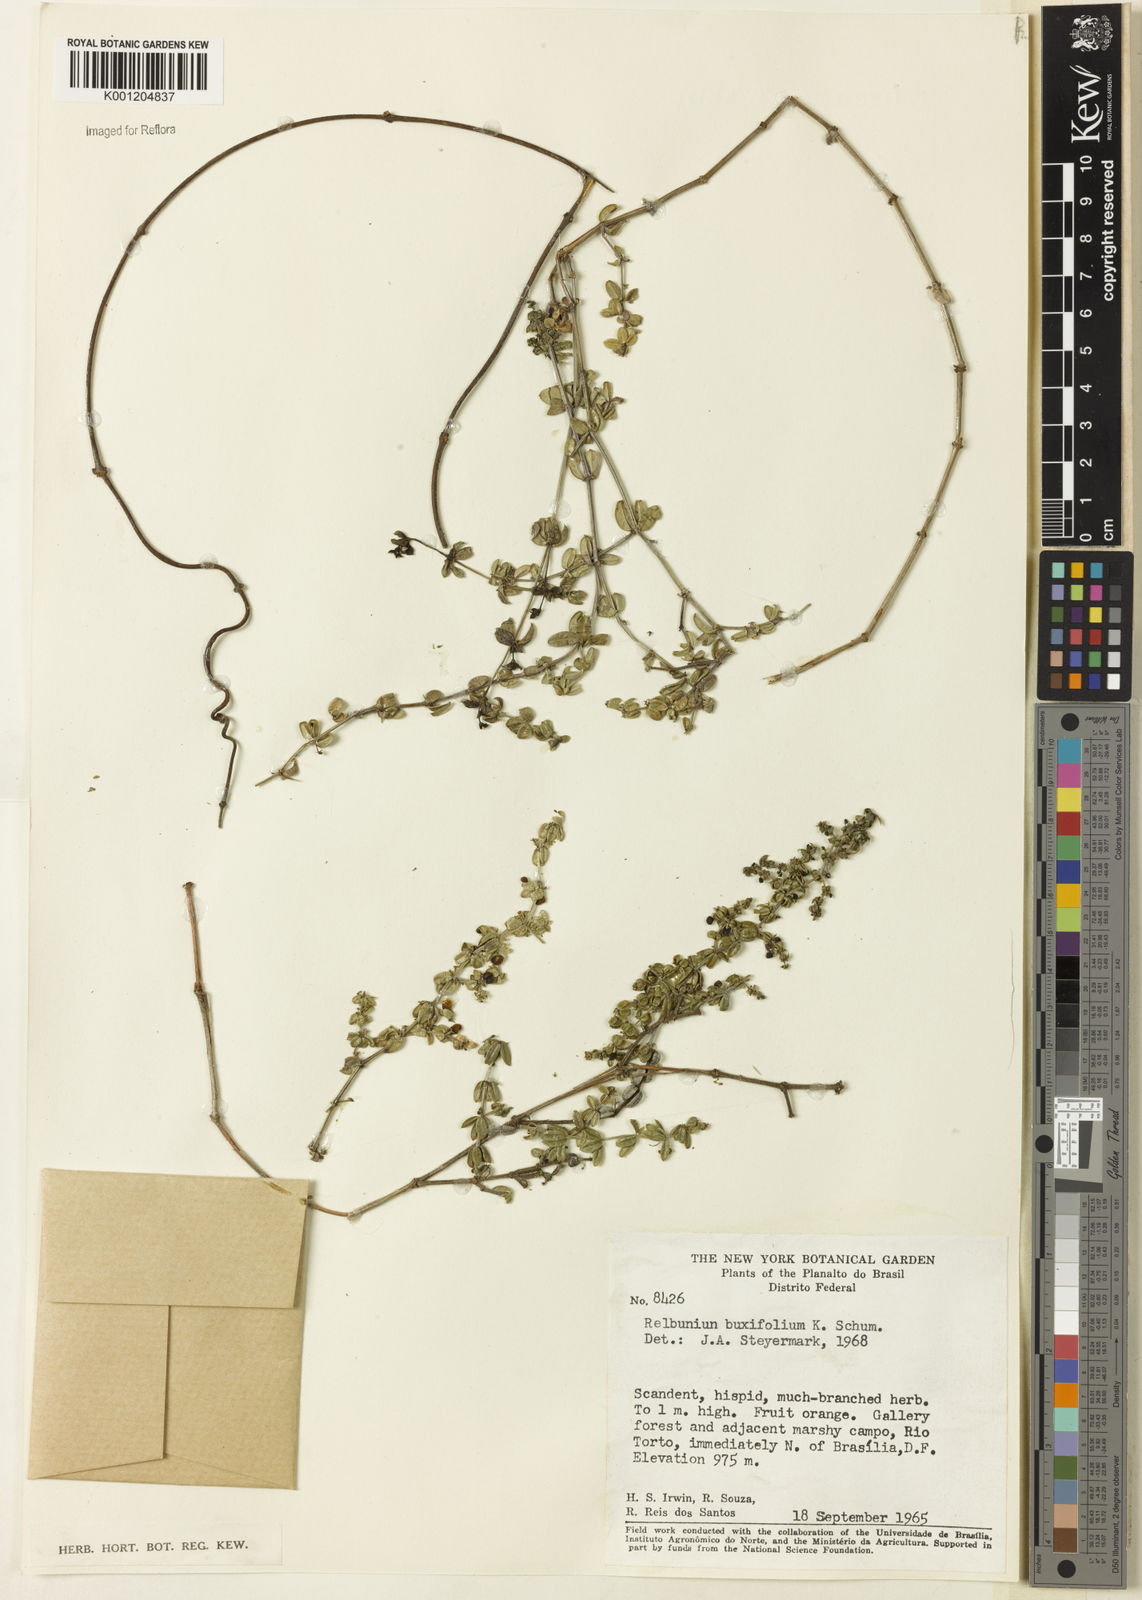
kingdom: Plantae
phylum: Tracheophyta
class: Magnoliopsida
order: Gentianales
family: Rubiaceae
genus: Galium
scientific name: Galium hypocarpium
